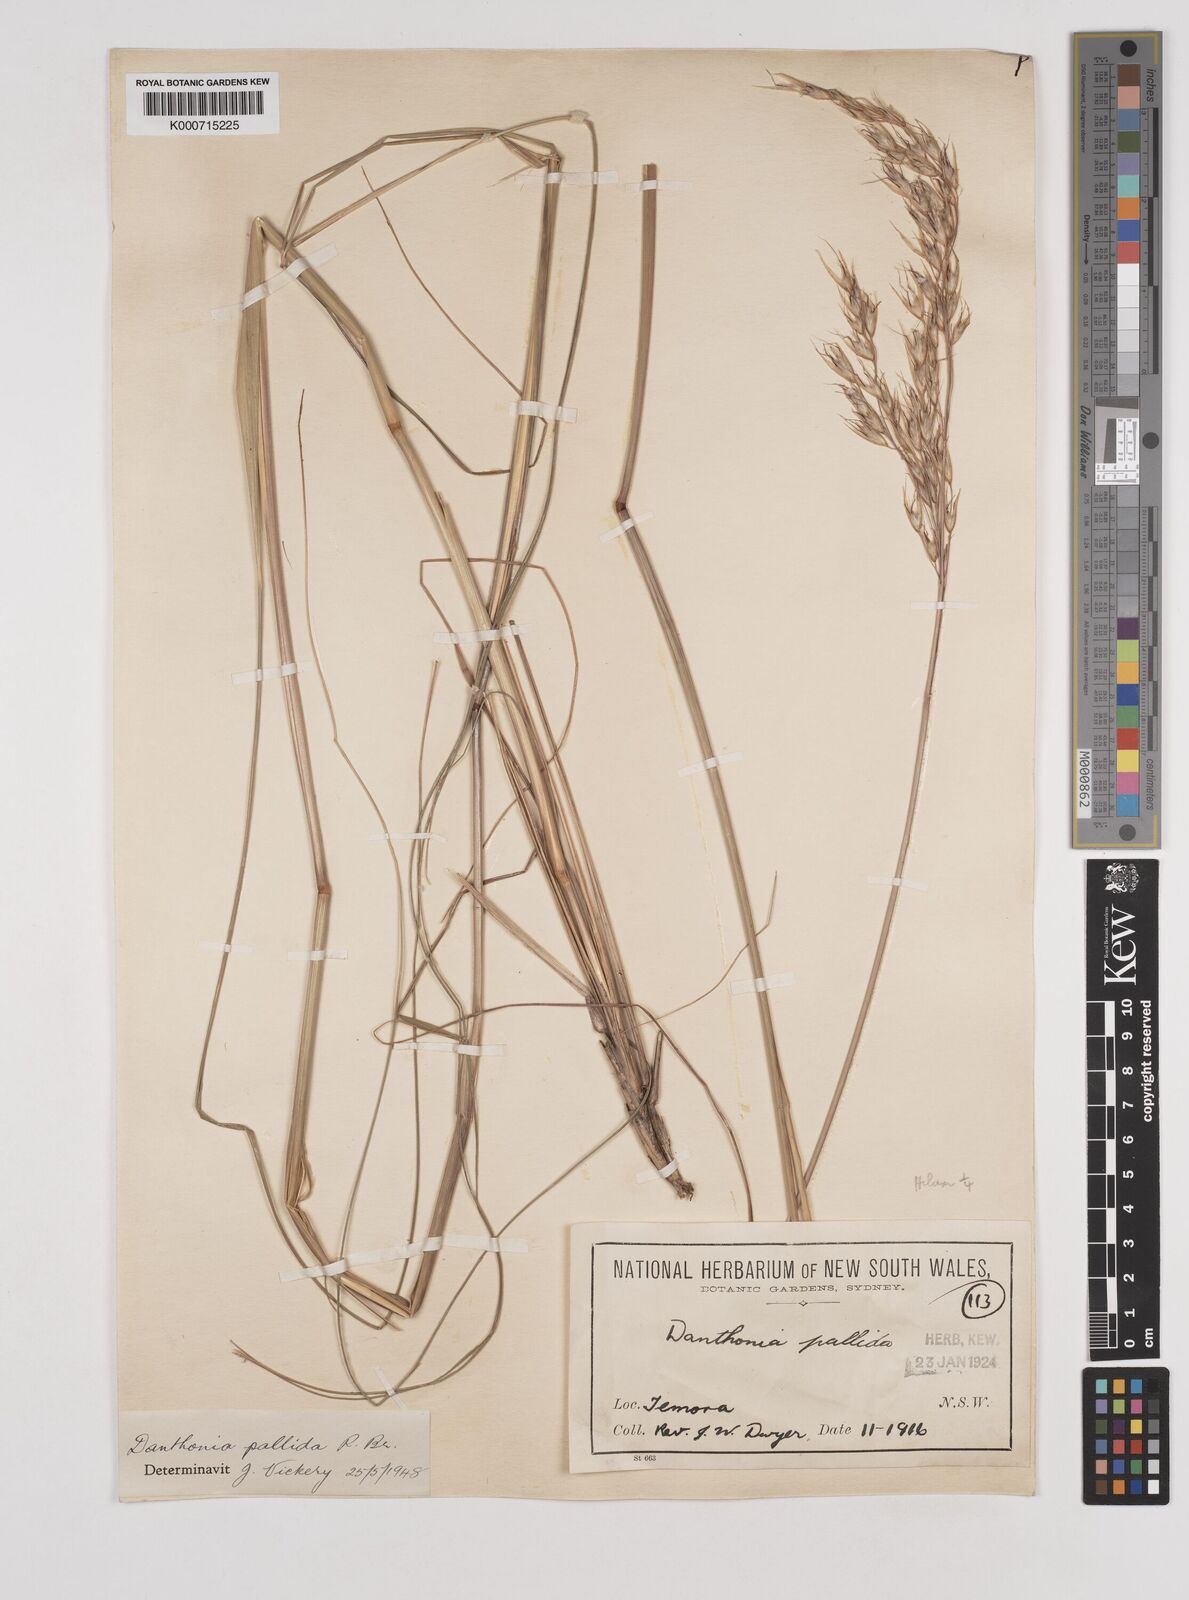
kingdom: Plantae
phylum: Tracheophyta
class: Liliopsida
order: Poales
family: Poaceae
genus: Rytidosperma
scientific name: Rytidosperma
